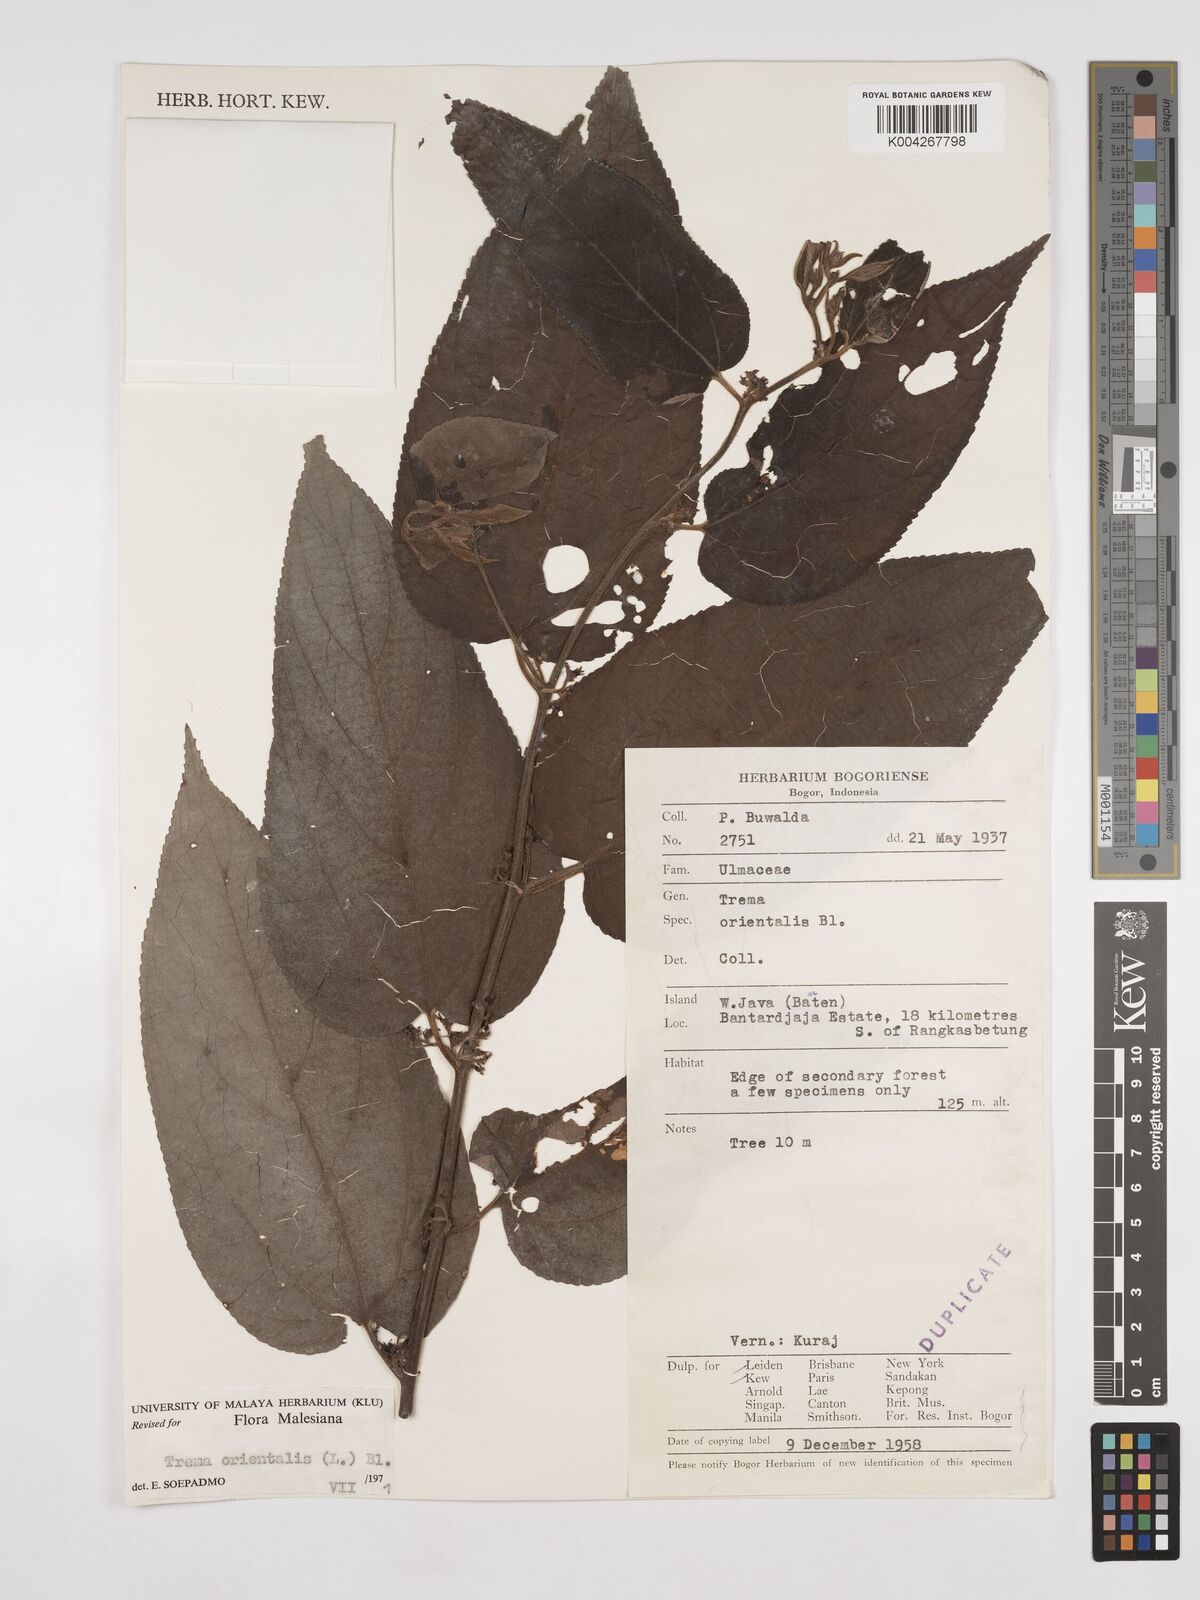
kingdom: Plantae
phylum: Tracheophyta
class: Magnoliopsida
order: Rosales
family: Cannabaceae
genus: Trema
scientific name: Trema orientale
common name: Indian charcoal tree
